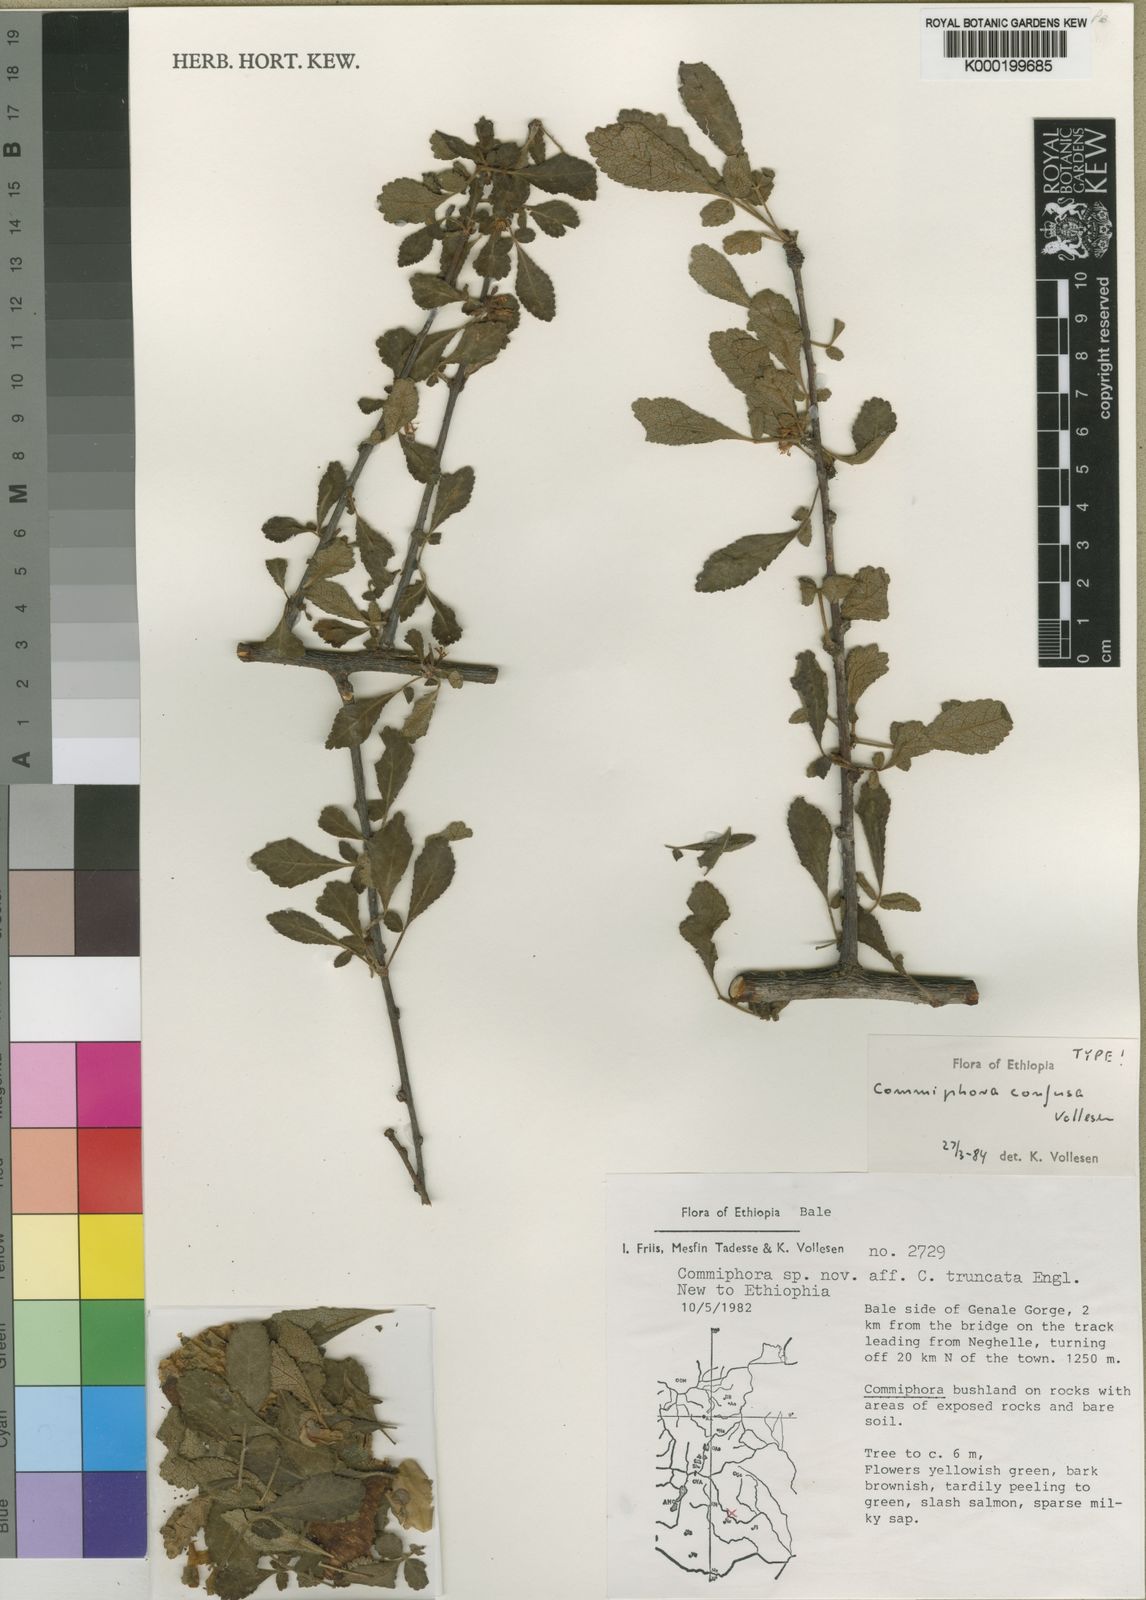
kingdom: Plantae
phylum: Tracheophyta
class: Magnoliopsida
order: Sapindales
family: Burseraceae
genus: Commiphora
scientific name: Commiphora confusa
